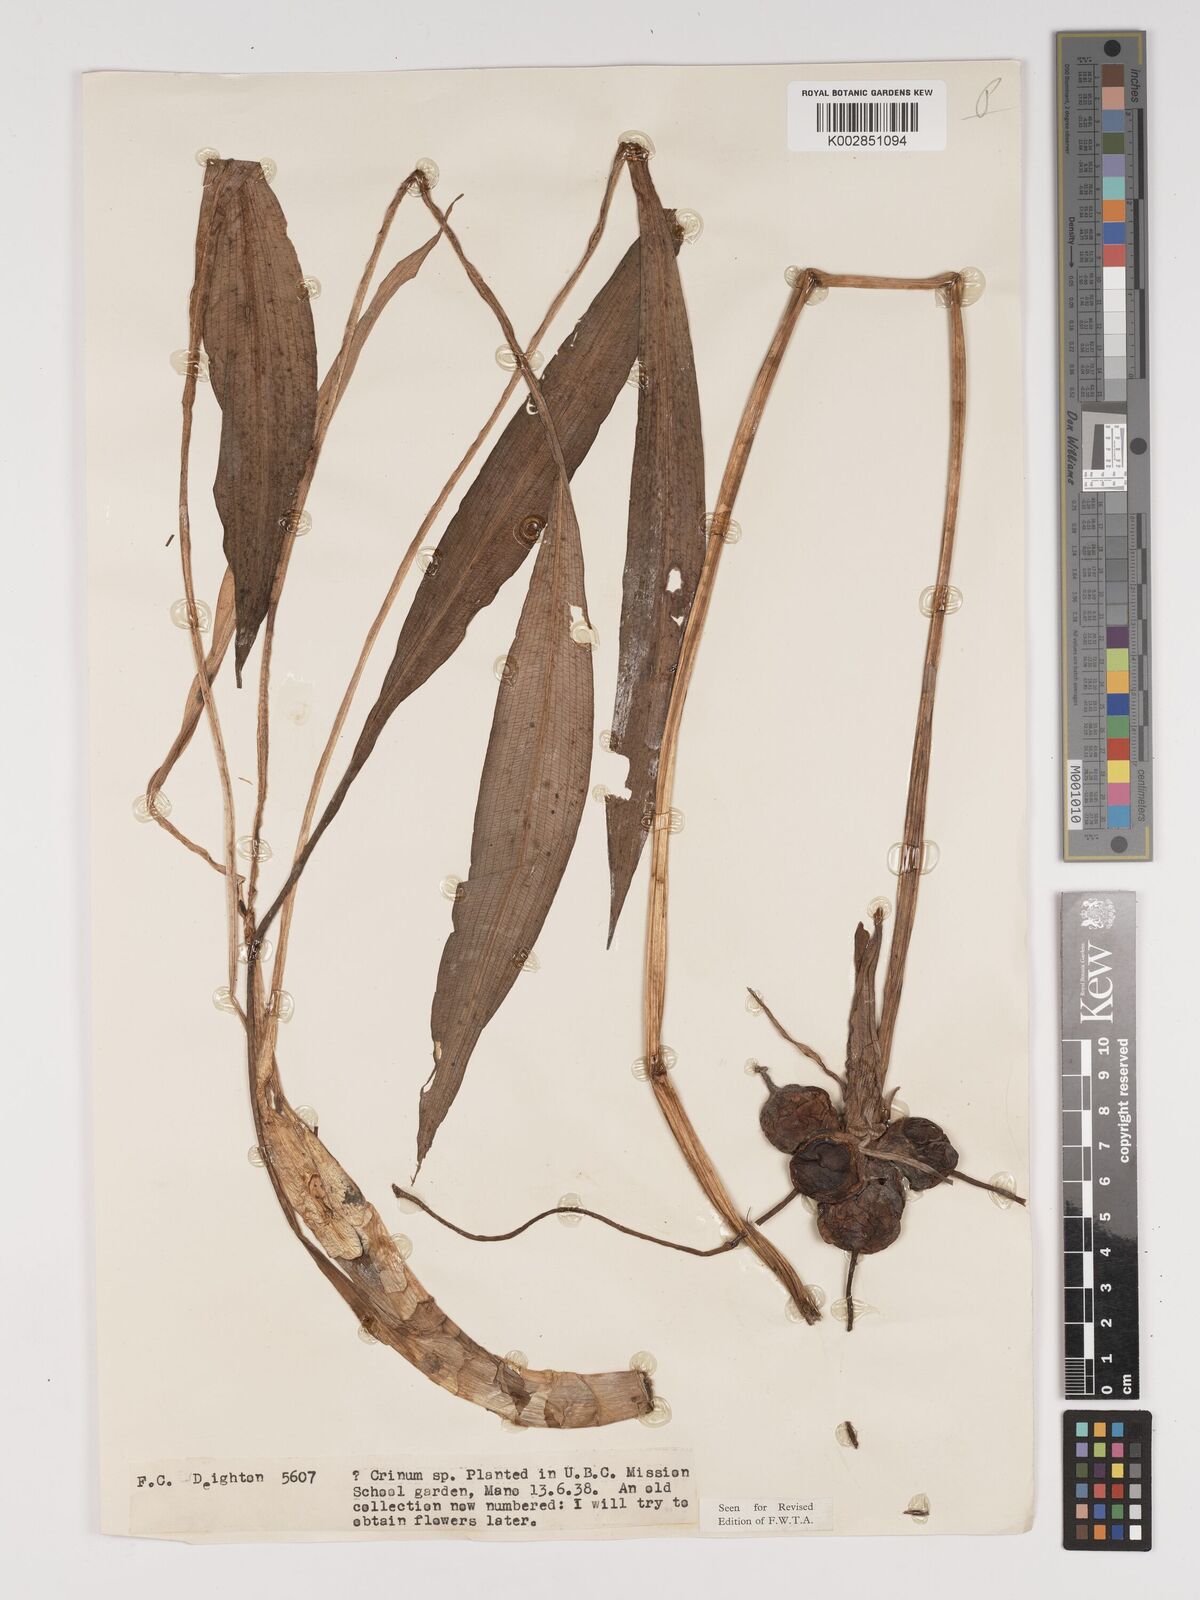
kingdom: Plantae
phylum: Tracheophyta
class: Liliopsida
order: Asparagales
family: Amaryllidaceae
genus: Crinum
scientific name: Crinum jagus
